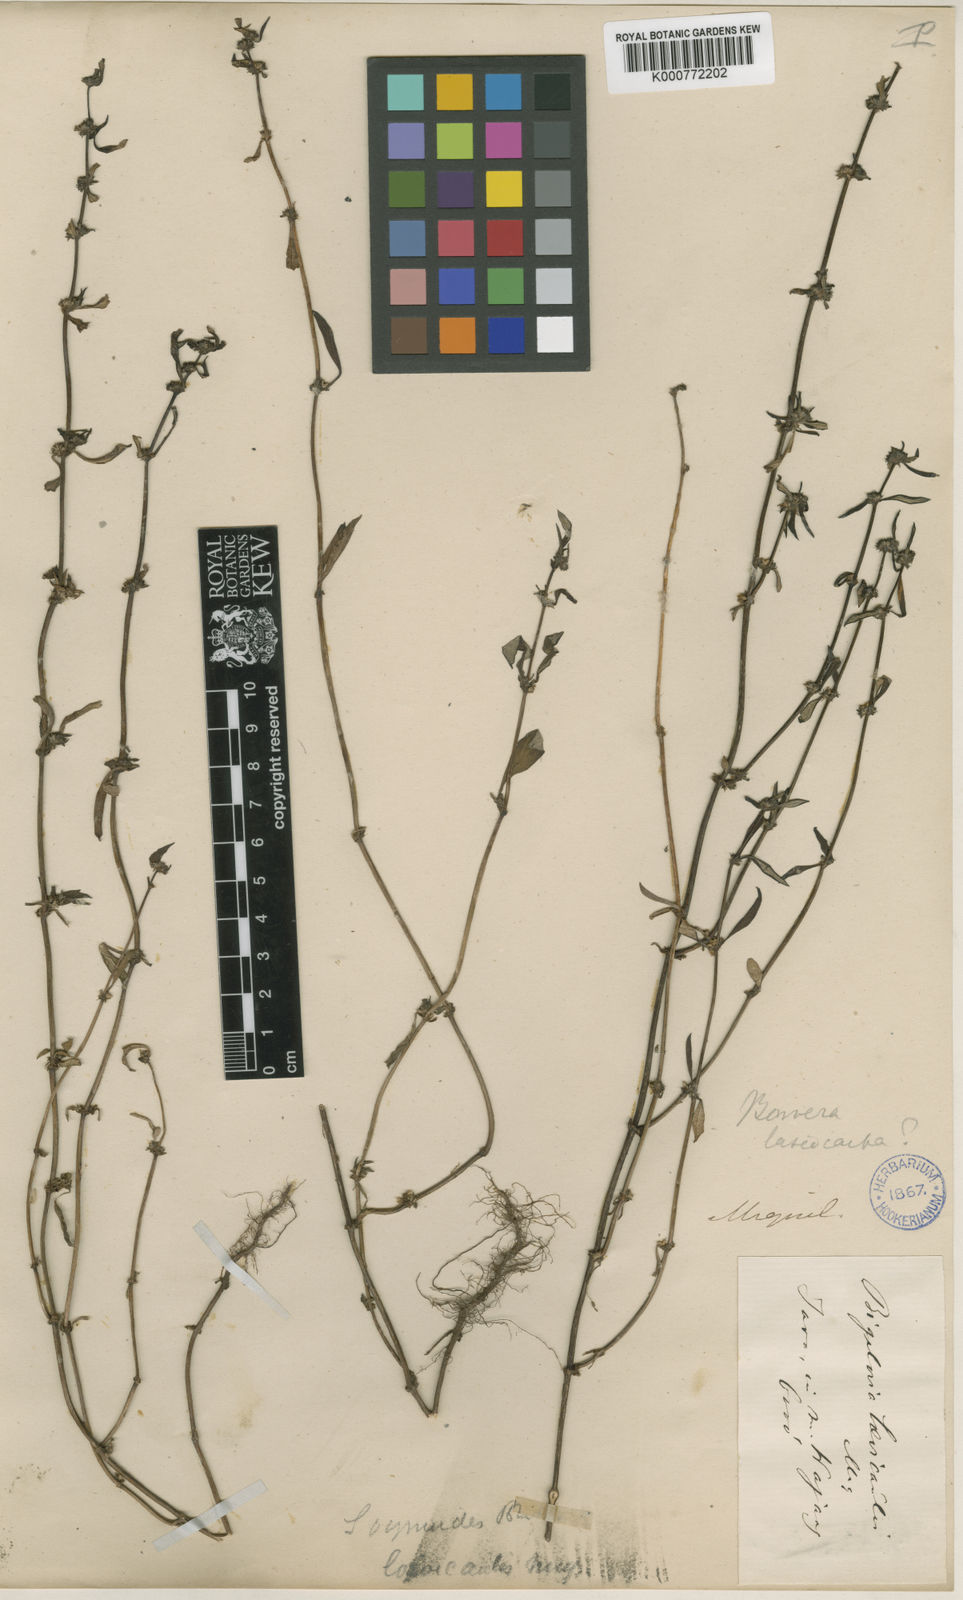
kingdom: Plantae
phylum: Tracheophyta
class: Magnoliopsida
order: Gentianales
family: Rubiaceae
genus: Spermacoce
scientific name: Spermacoce setidens
